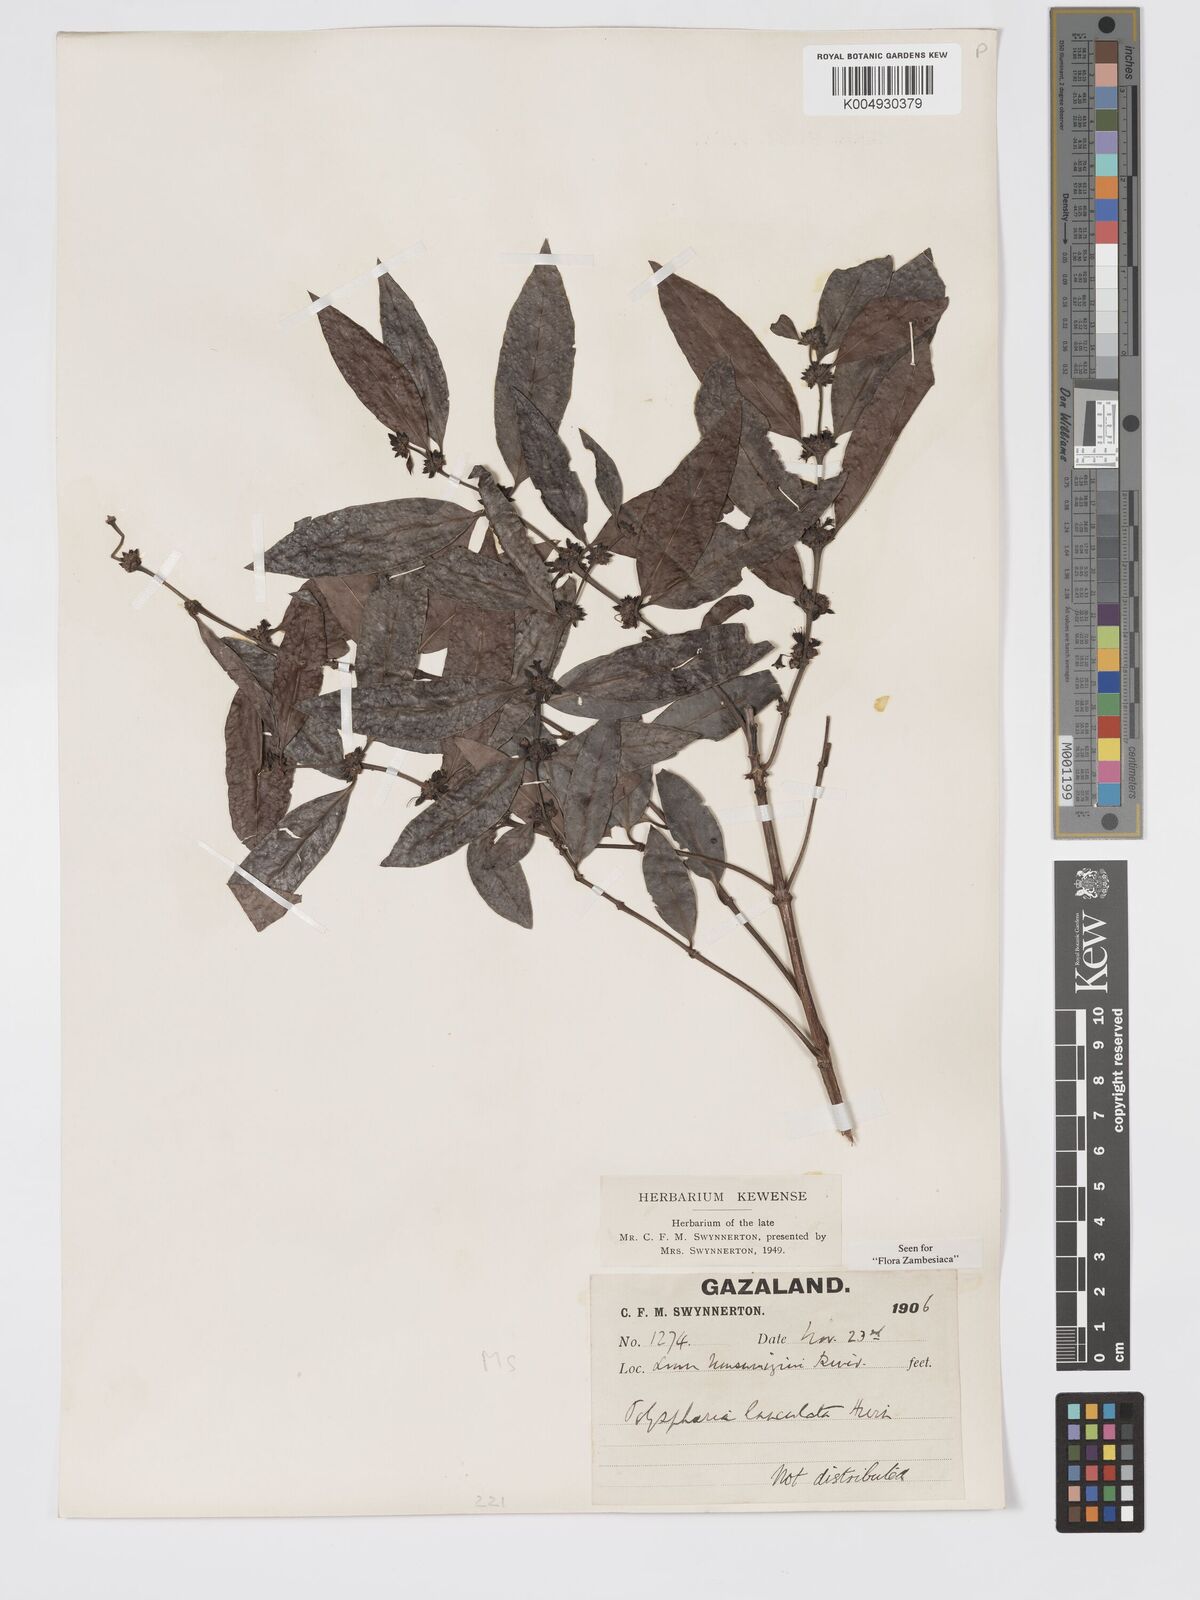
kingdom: Plantae
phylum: Tracheophyta
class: Magnoliopsida
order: Gentianales
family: Rubiaceae
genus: Polysphaeria
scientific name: Polysphaeria lanceolata
